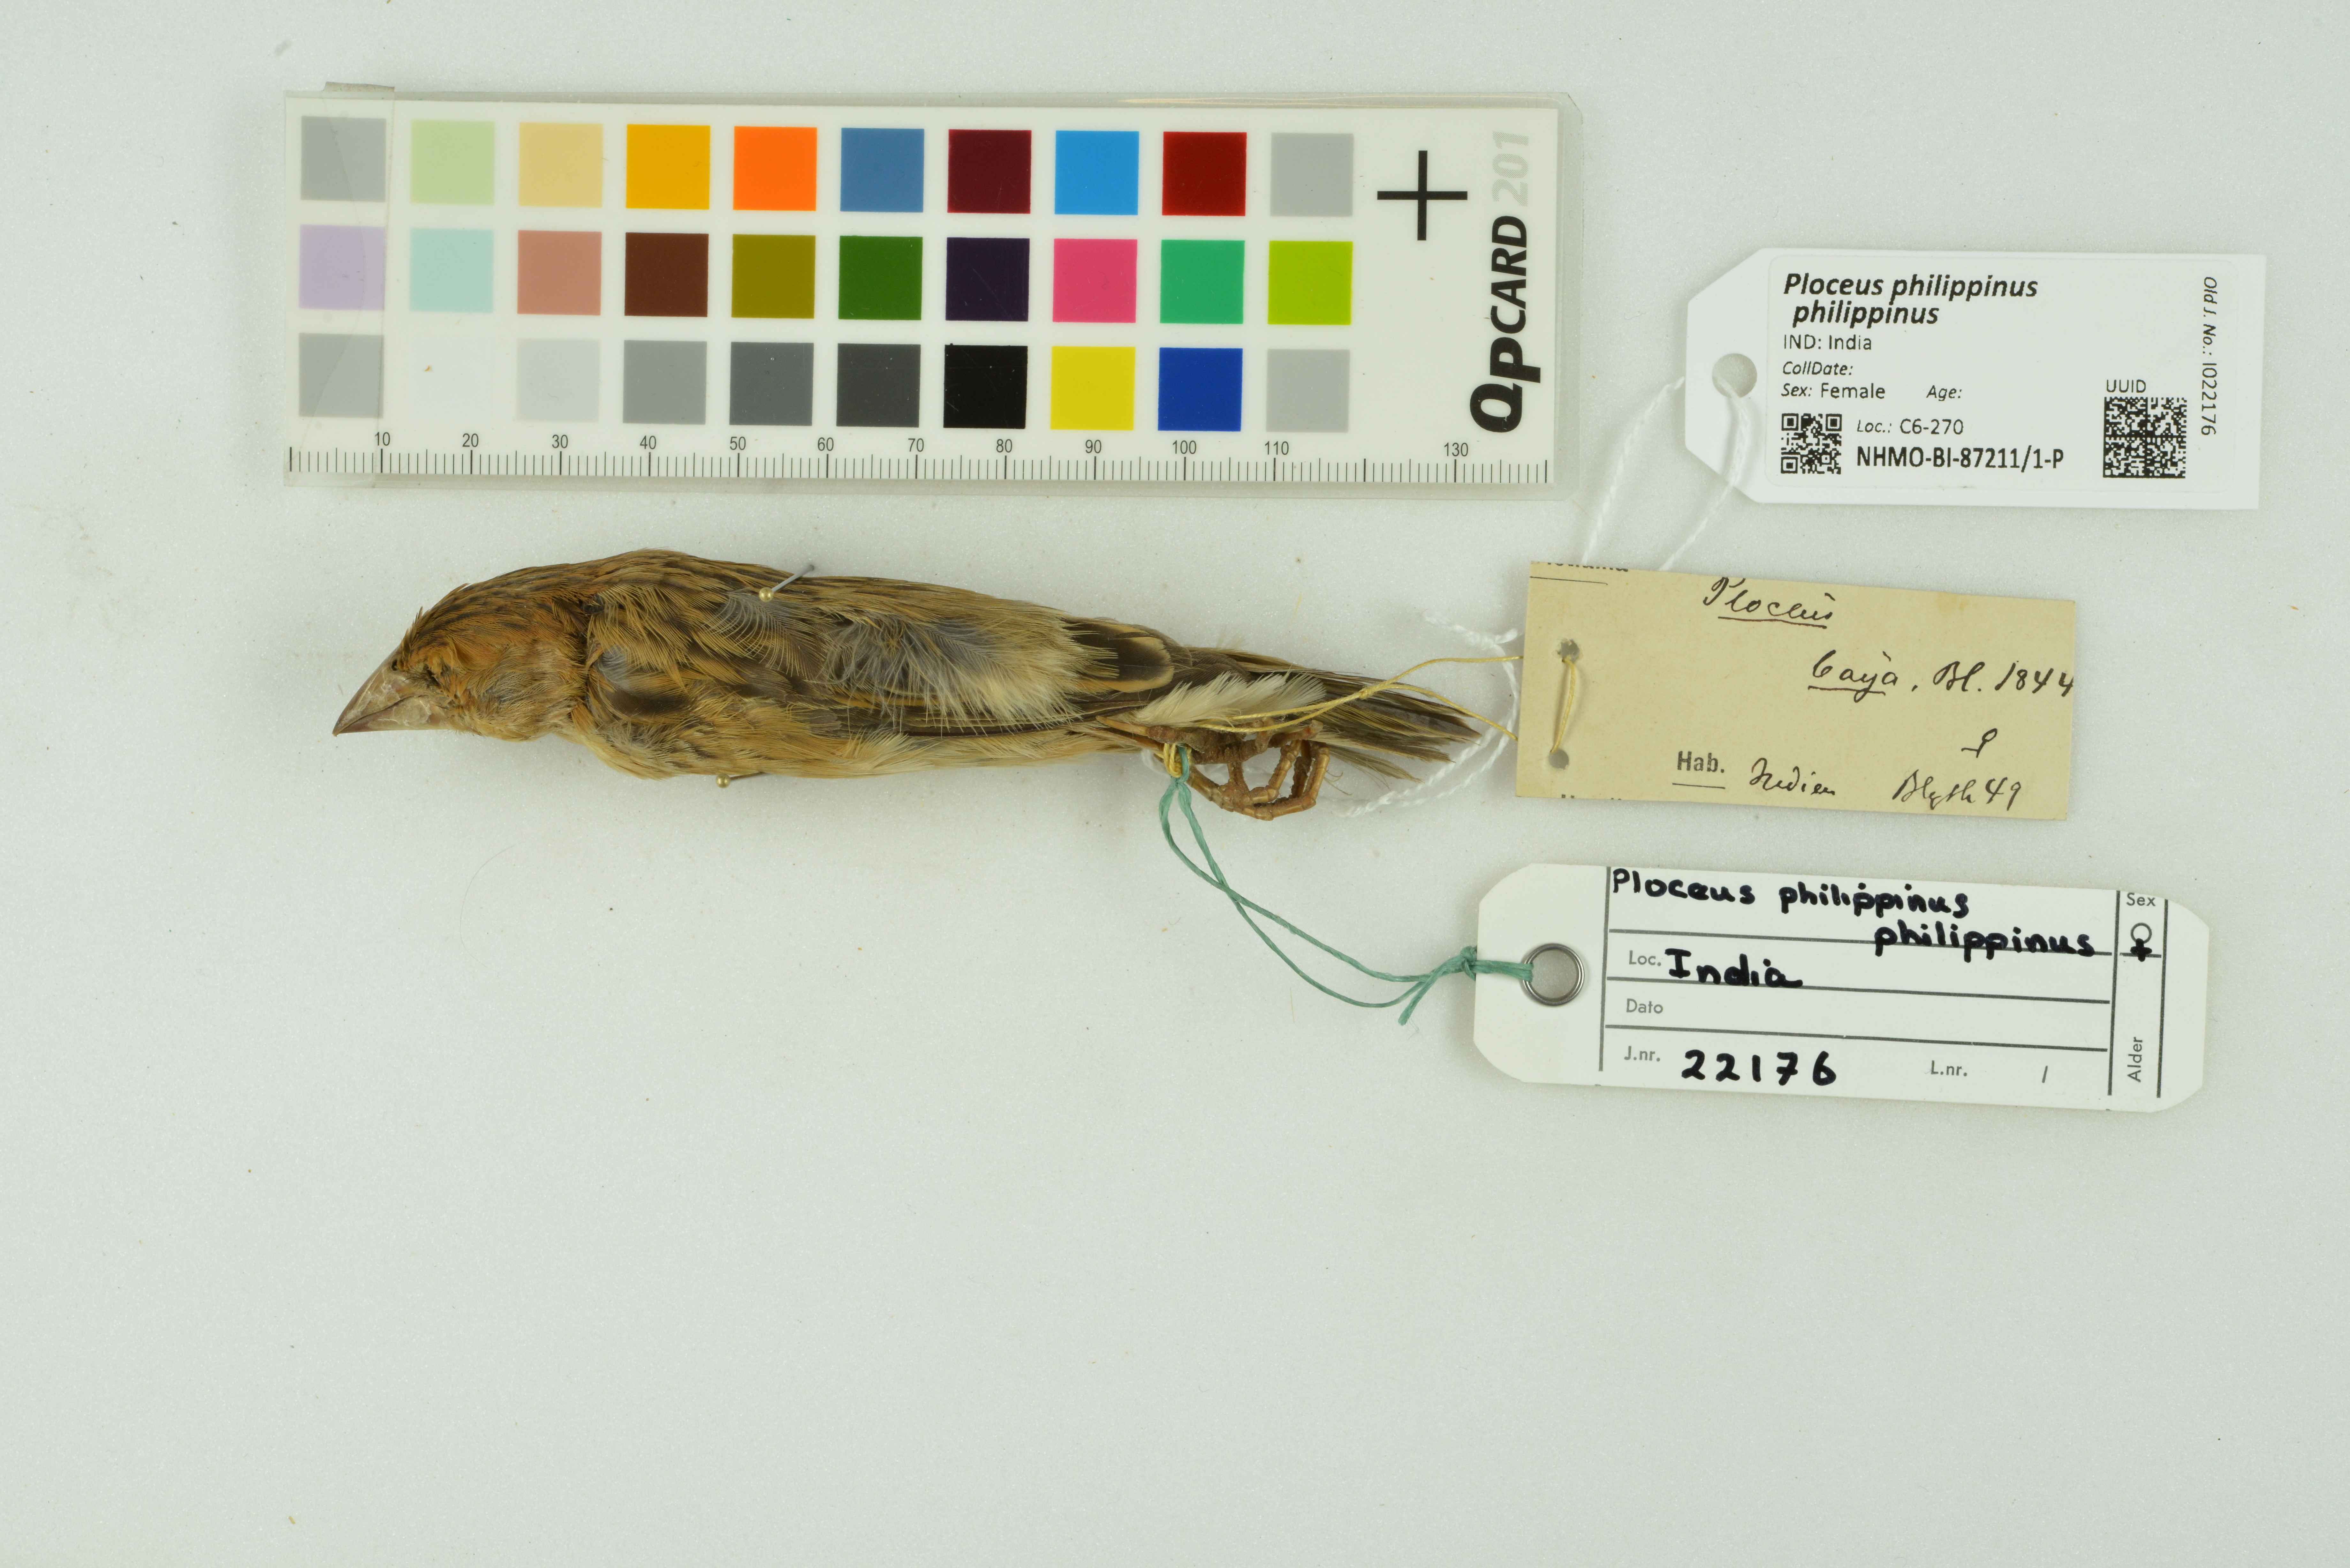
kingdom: Animalia
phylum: Chordata
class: Aves
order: Passeriformes
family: Ploceidae
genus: Ploceus
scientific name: Ploceus philippinus
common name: Baya weaver
